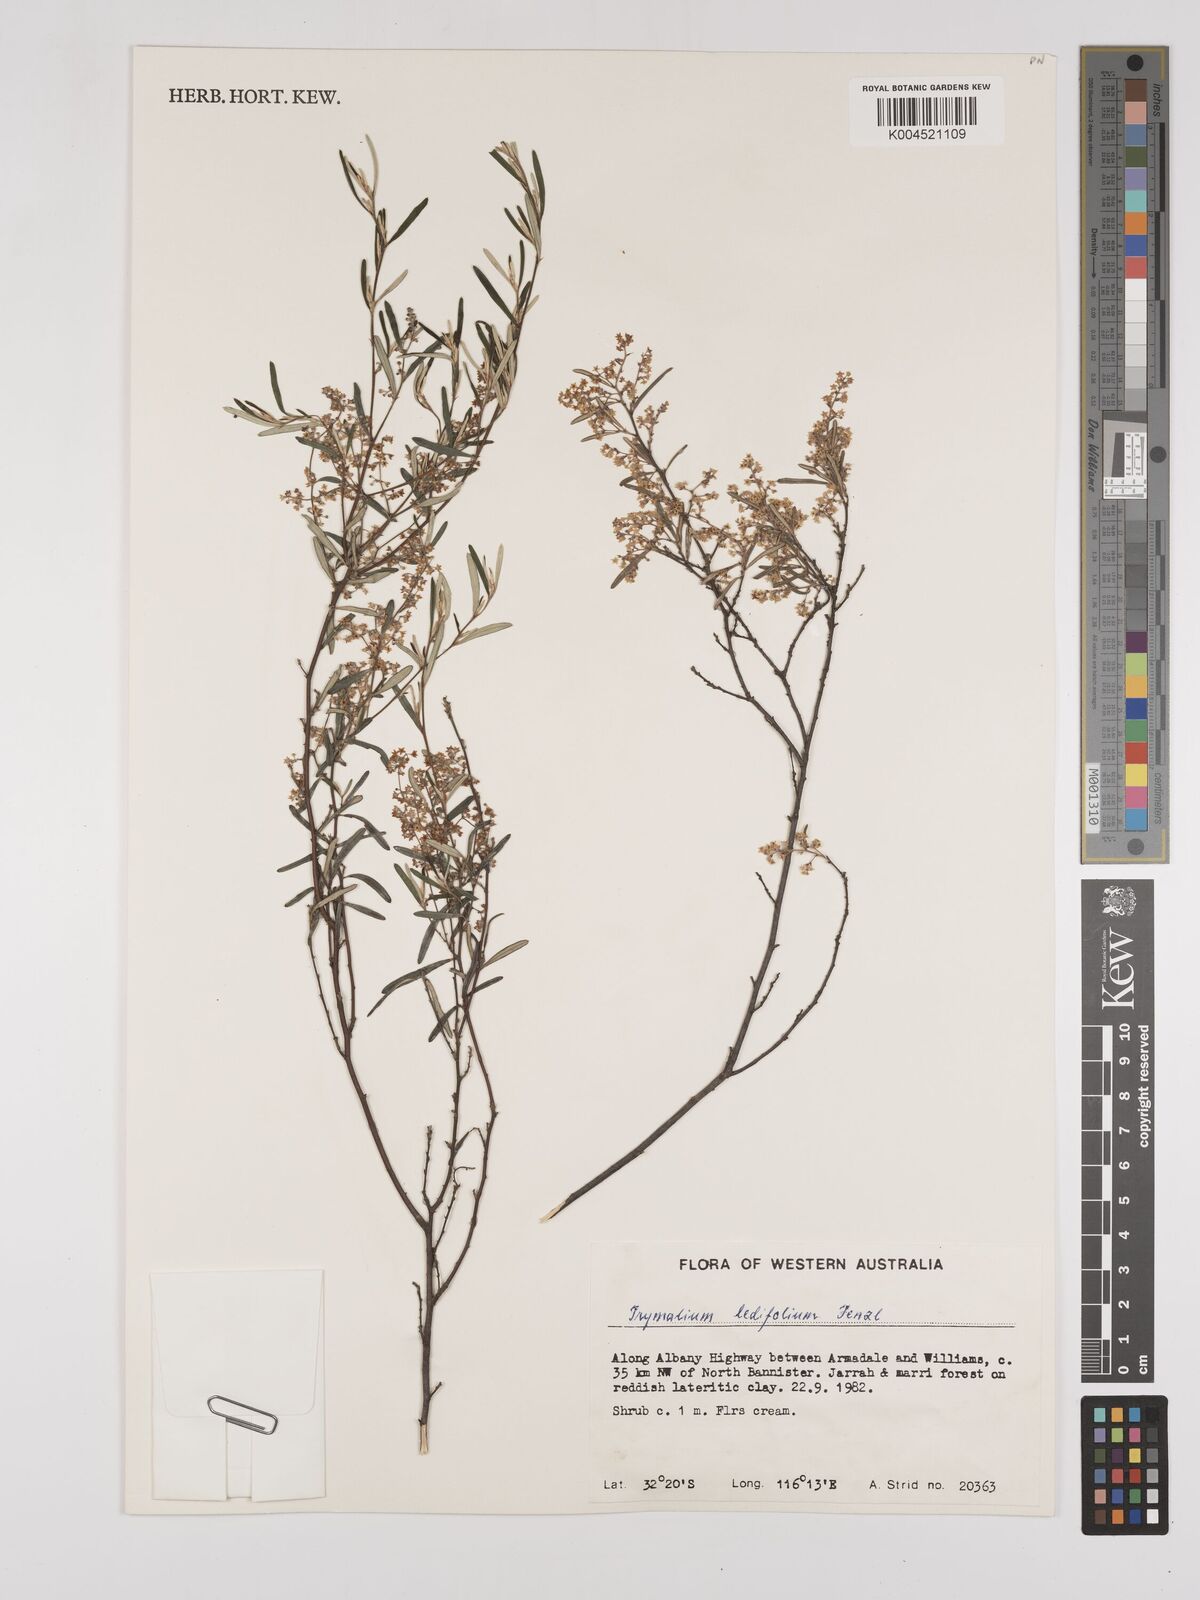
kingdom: Plantae
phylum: Tracheophyta
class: Magnoliopsida
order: Rosales
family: Rhamnaceae
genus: Trymalium
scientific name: Trymalium ledifolium
